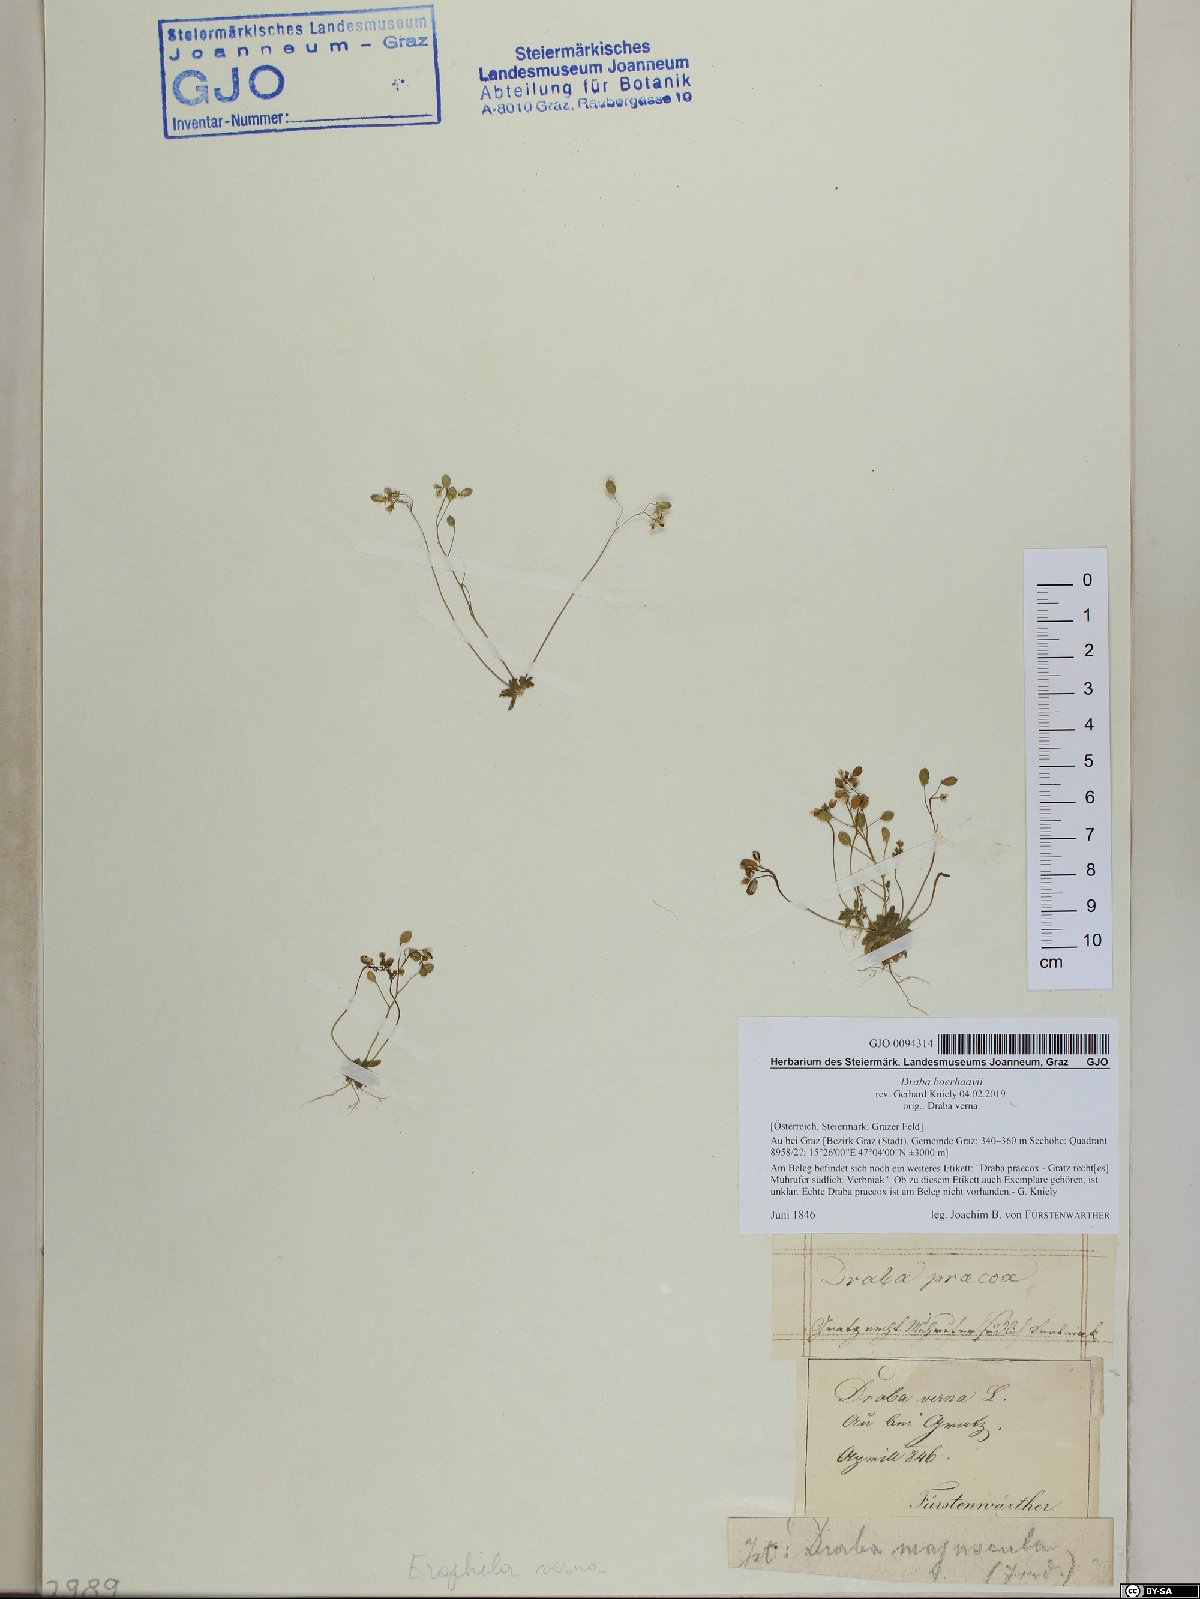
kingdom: Plantae
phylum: Tracheophyta
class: Magnoliopsida
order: Brassicales
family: Brassicaceae
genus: Draba
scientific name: Draba verna
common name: Spring draba
